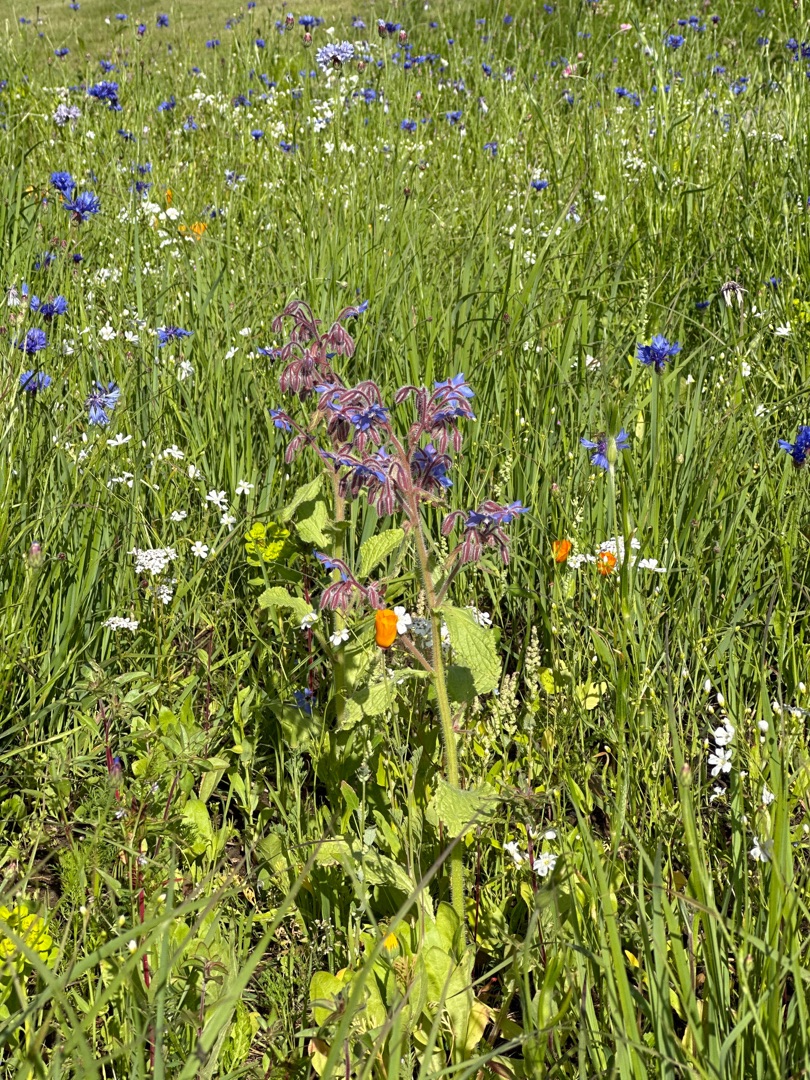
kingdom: Plantae
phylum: Tracheophyta
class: Magnoliopsida
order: Boraginales
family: Boraginaceae
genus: Borago
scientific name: Borago officinalis
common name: Hjulkrone
